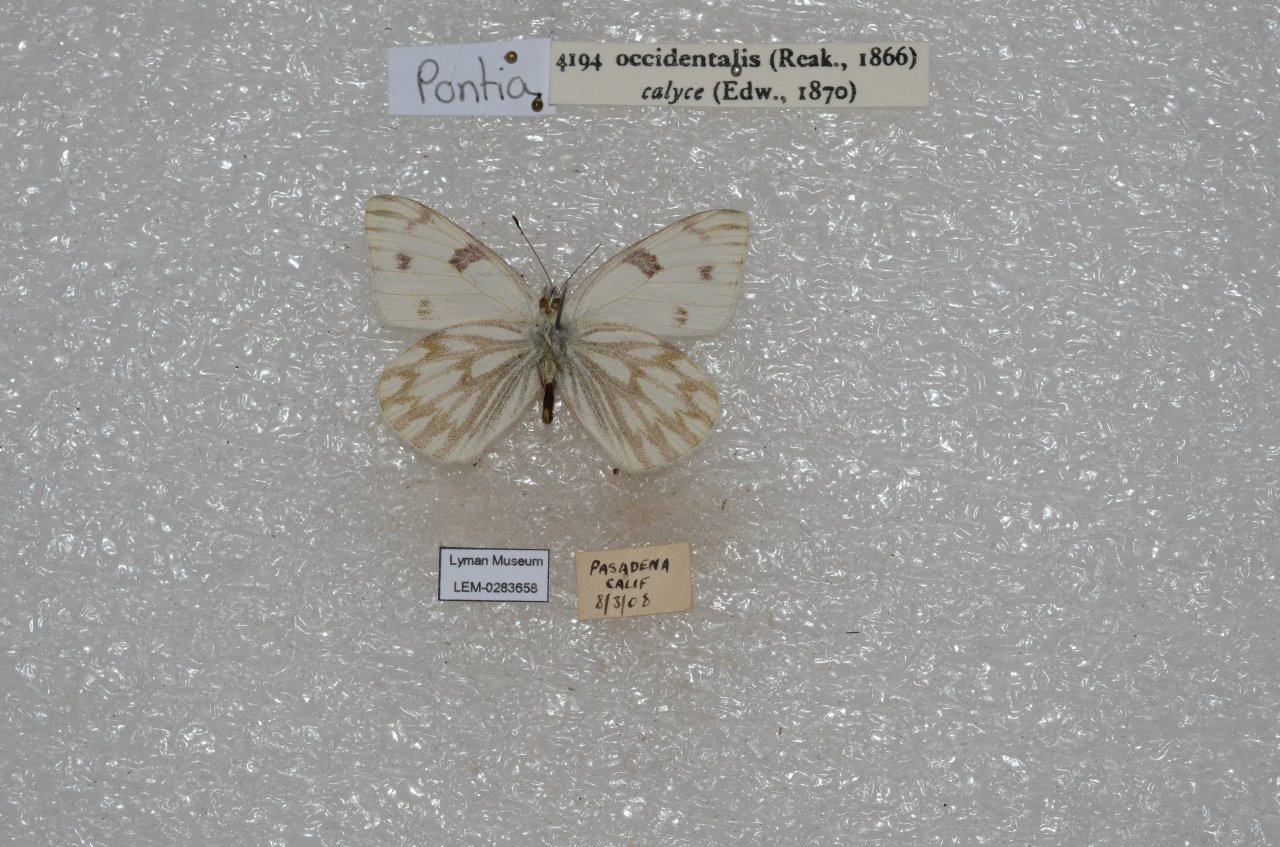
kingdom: Animalia
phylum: Arthropoda
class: Insecta
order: Lepidoptera
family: Pieridae
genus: Pontia
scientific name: Pontia occidentalis
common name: Western White
